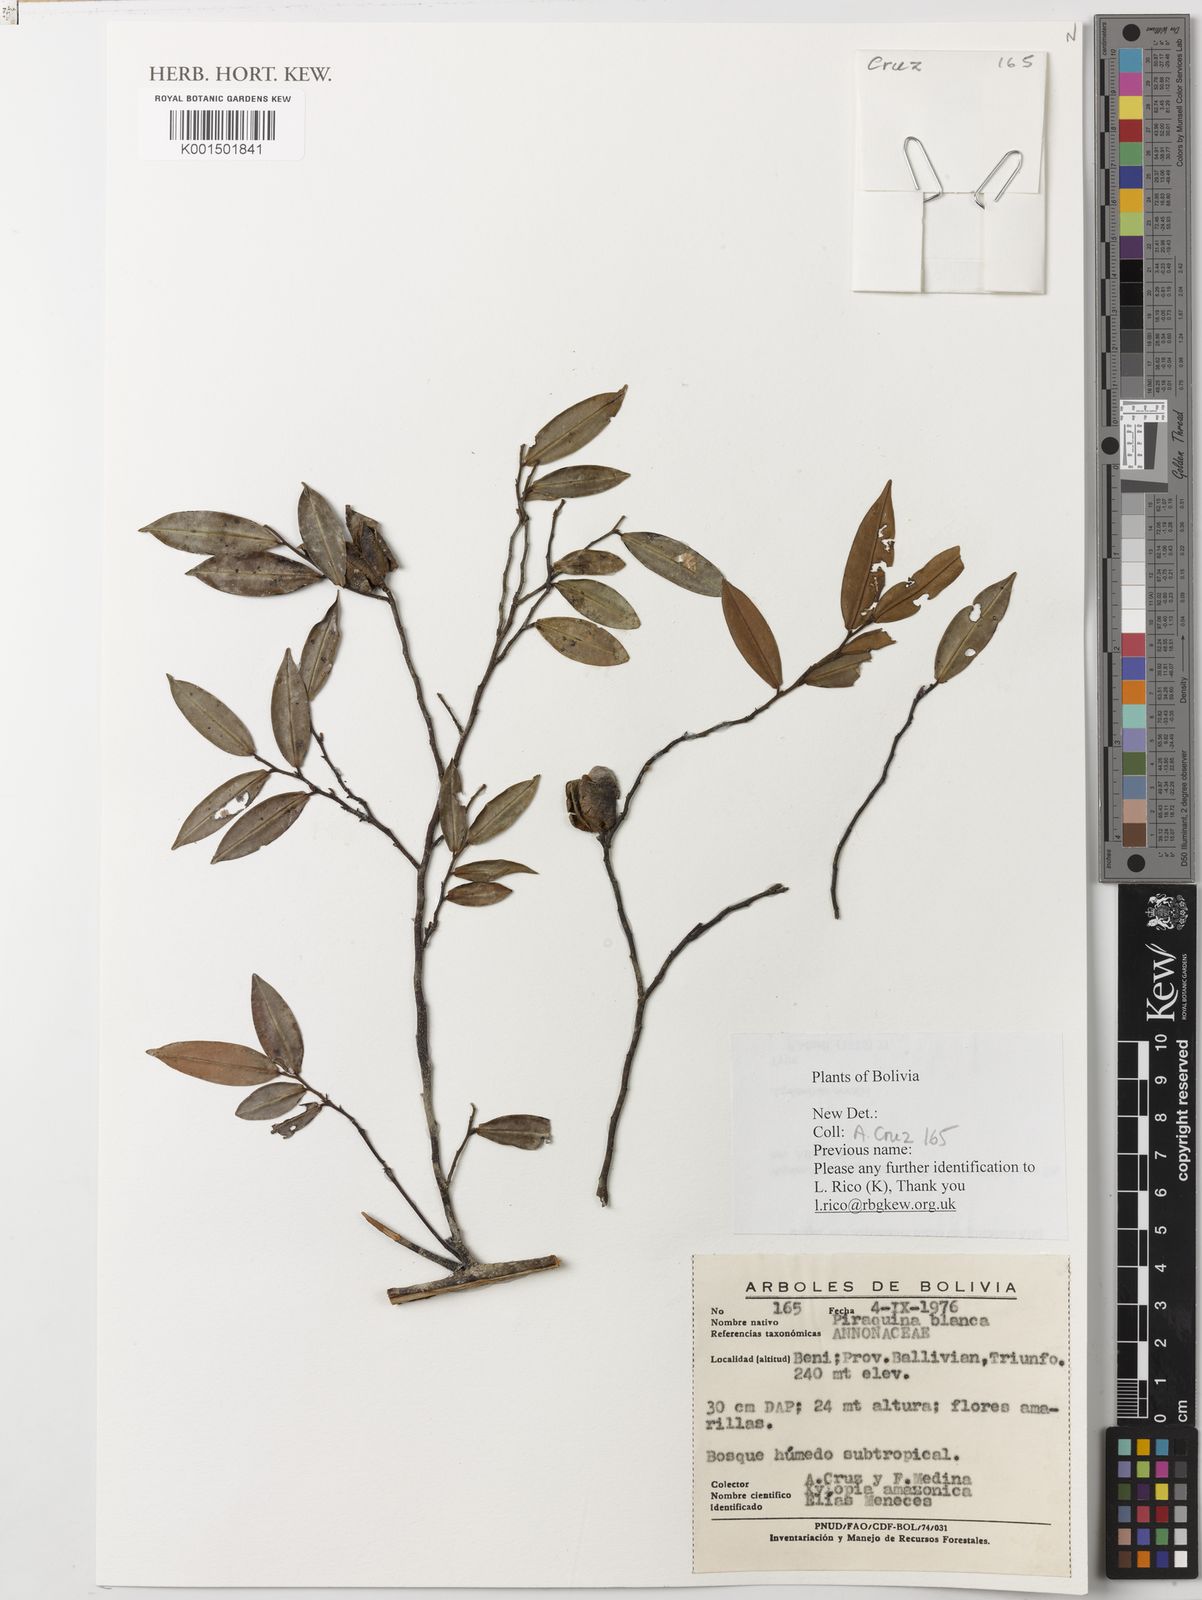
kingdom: Plantae
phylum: Tracheophyta
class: Magnoliopsida
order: Magnoliales
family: Annonaceae
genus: Xylopia
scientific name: Xylopia amazonica
